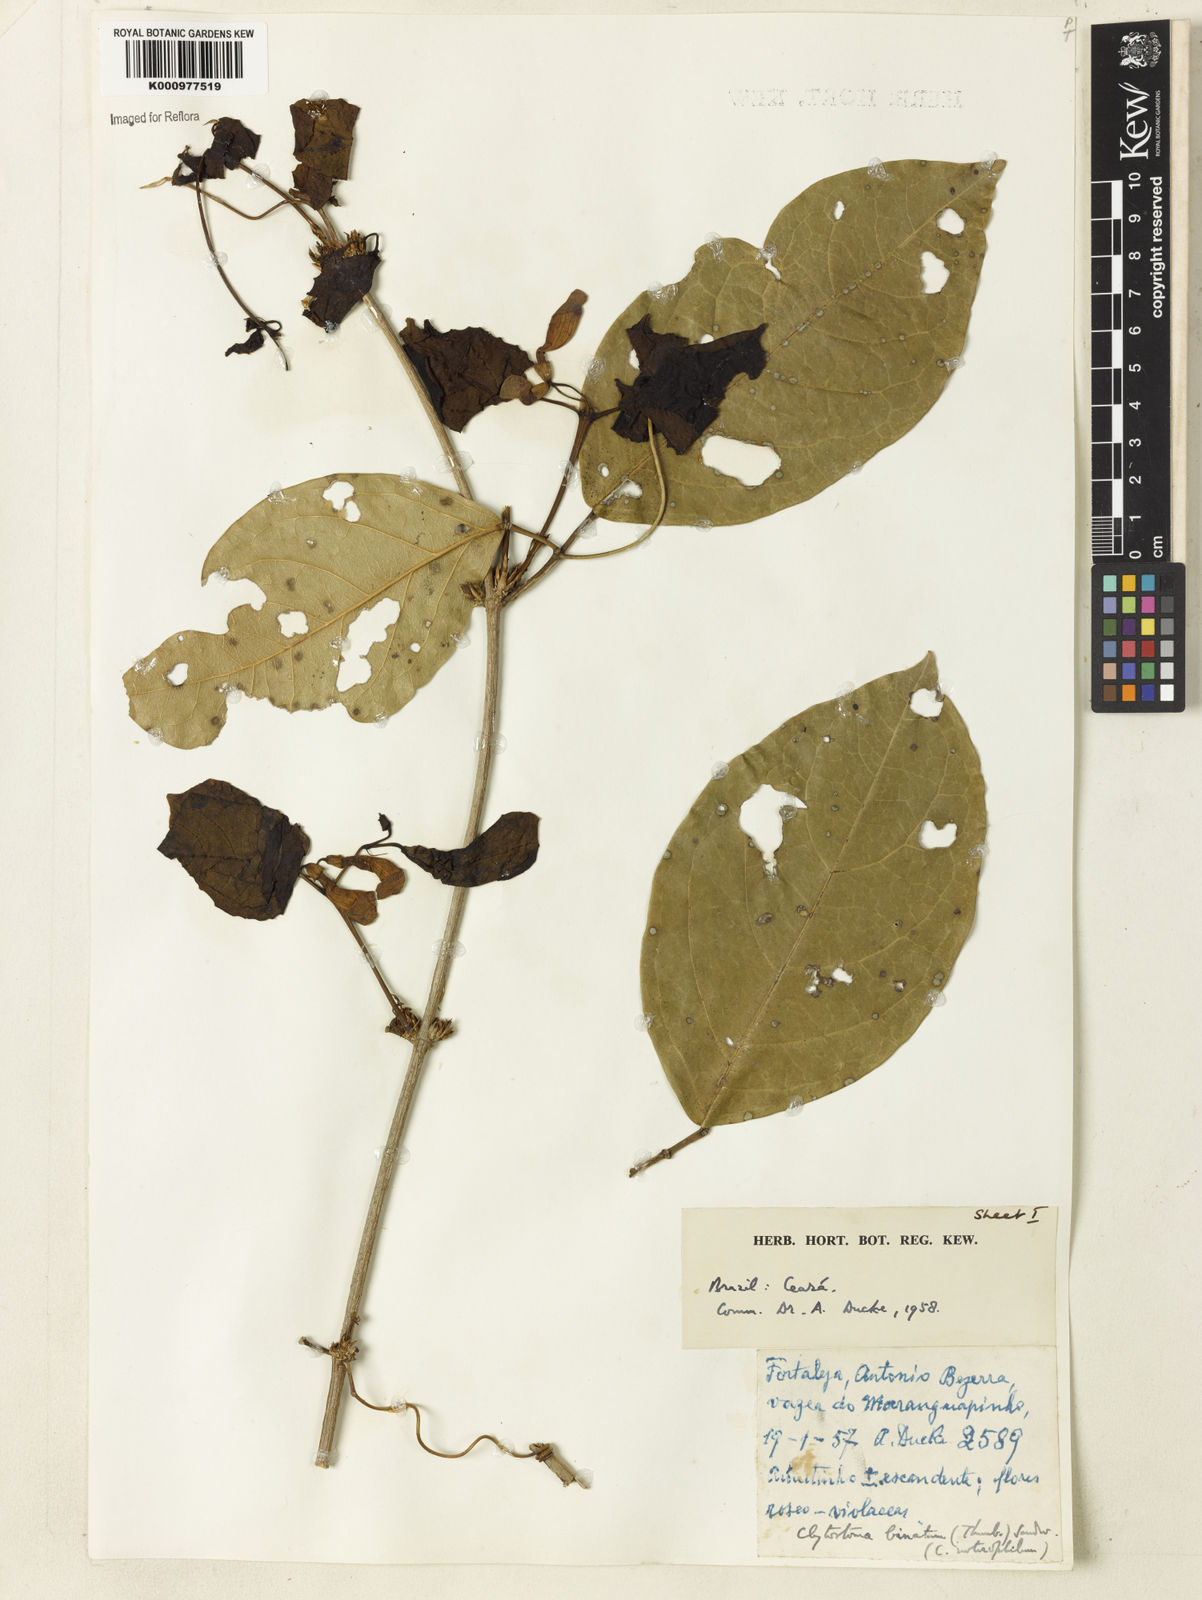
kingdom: Plantae
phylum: Tracheophyta
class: Magnoliopsida
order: Lamiales
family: Bignoniaceae
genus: Bignonia
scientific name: Bignonia binata
